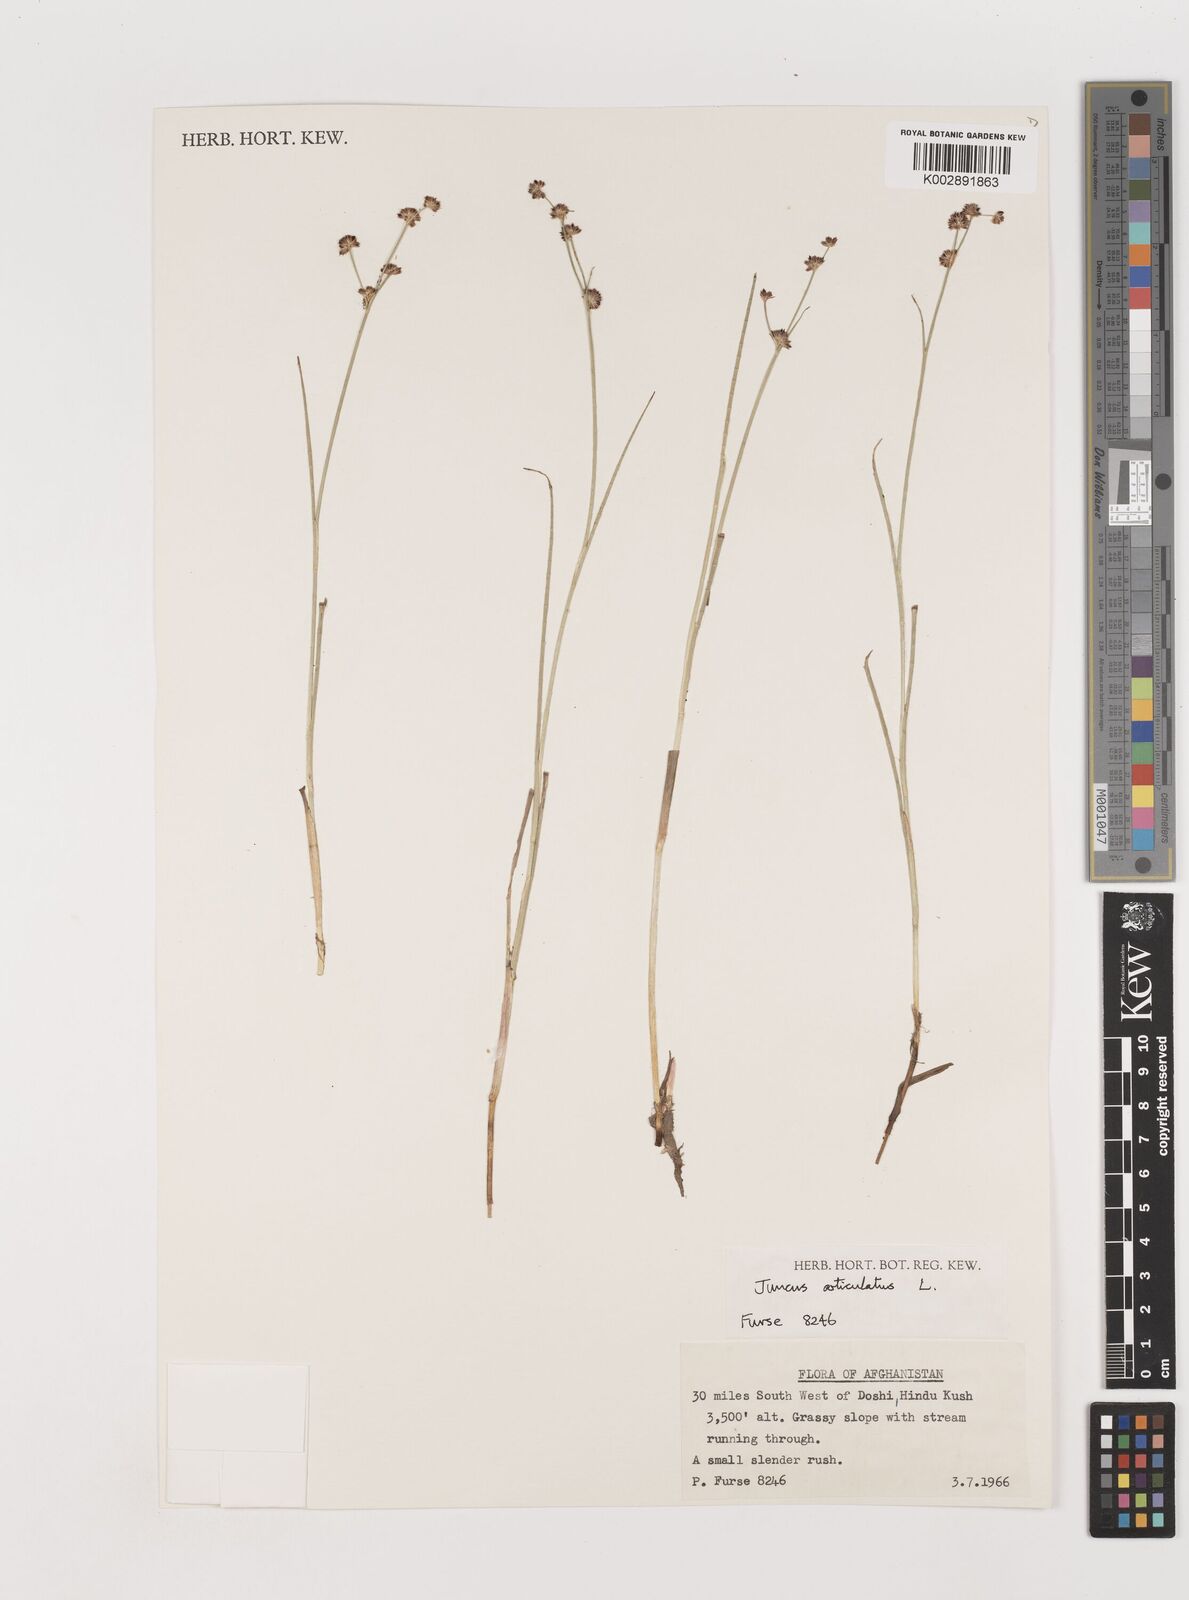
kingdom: Plantae
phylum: Tracheophyta
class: Liliopsida
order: Poales
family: Juncaceae
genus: Juncus
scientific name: Juncus articulatus
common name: Jointed rush
